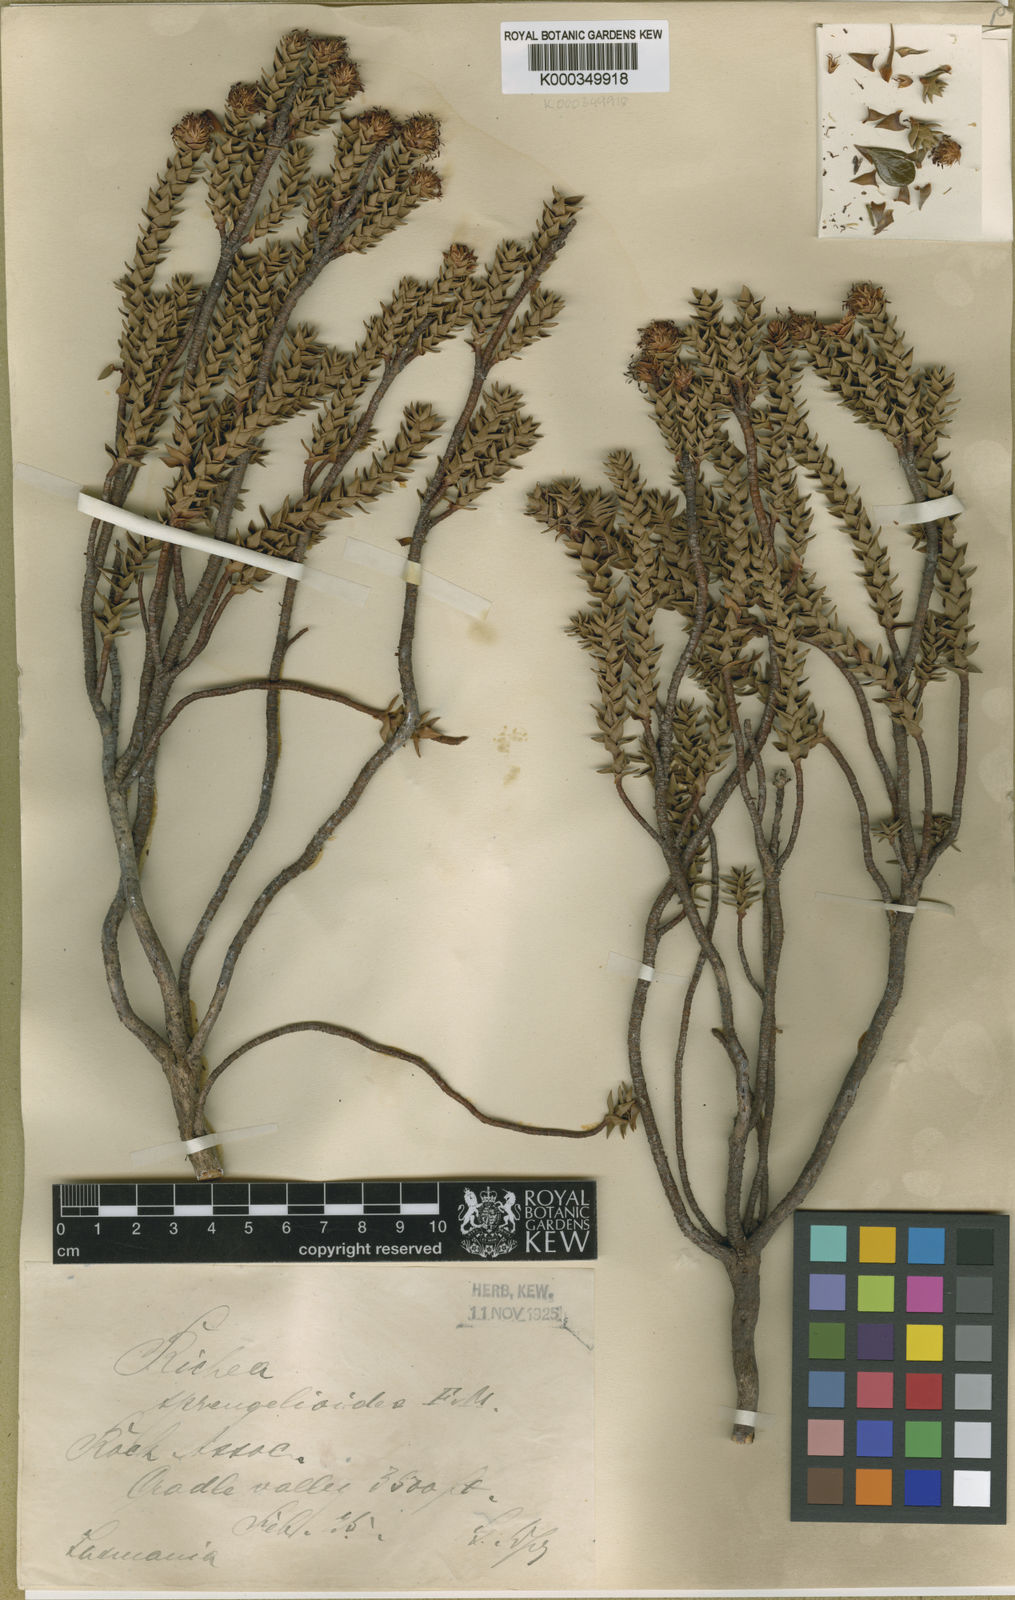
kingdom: Plantae
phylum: Tracheophyta
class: Magnoliopsida
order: Ericales
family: Ericaceae
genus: Dracophyllum
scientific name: Dracophyllum sprengelioides
